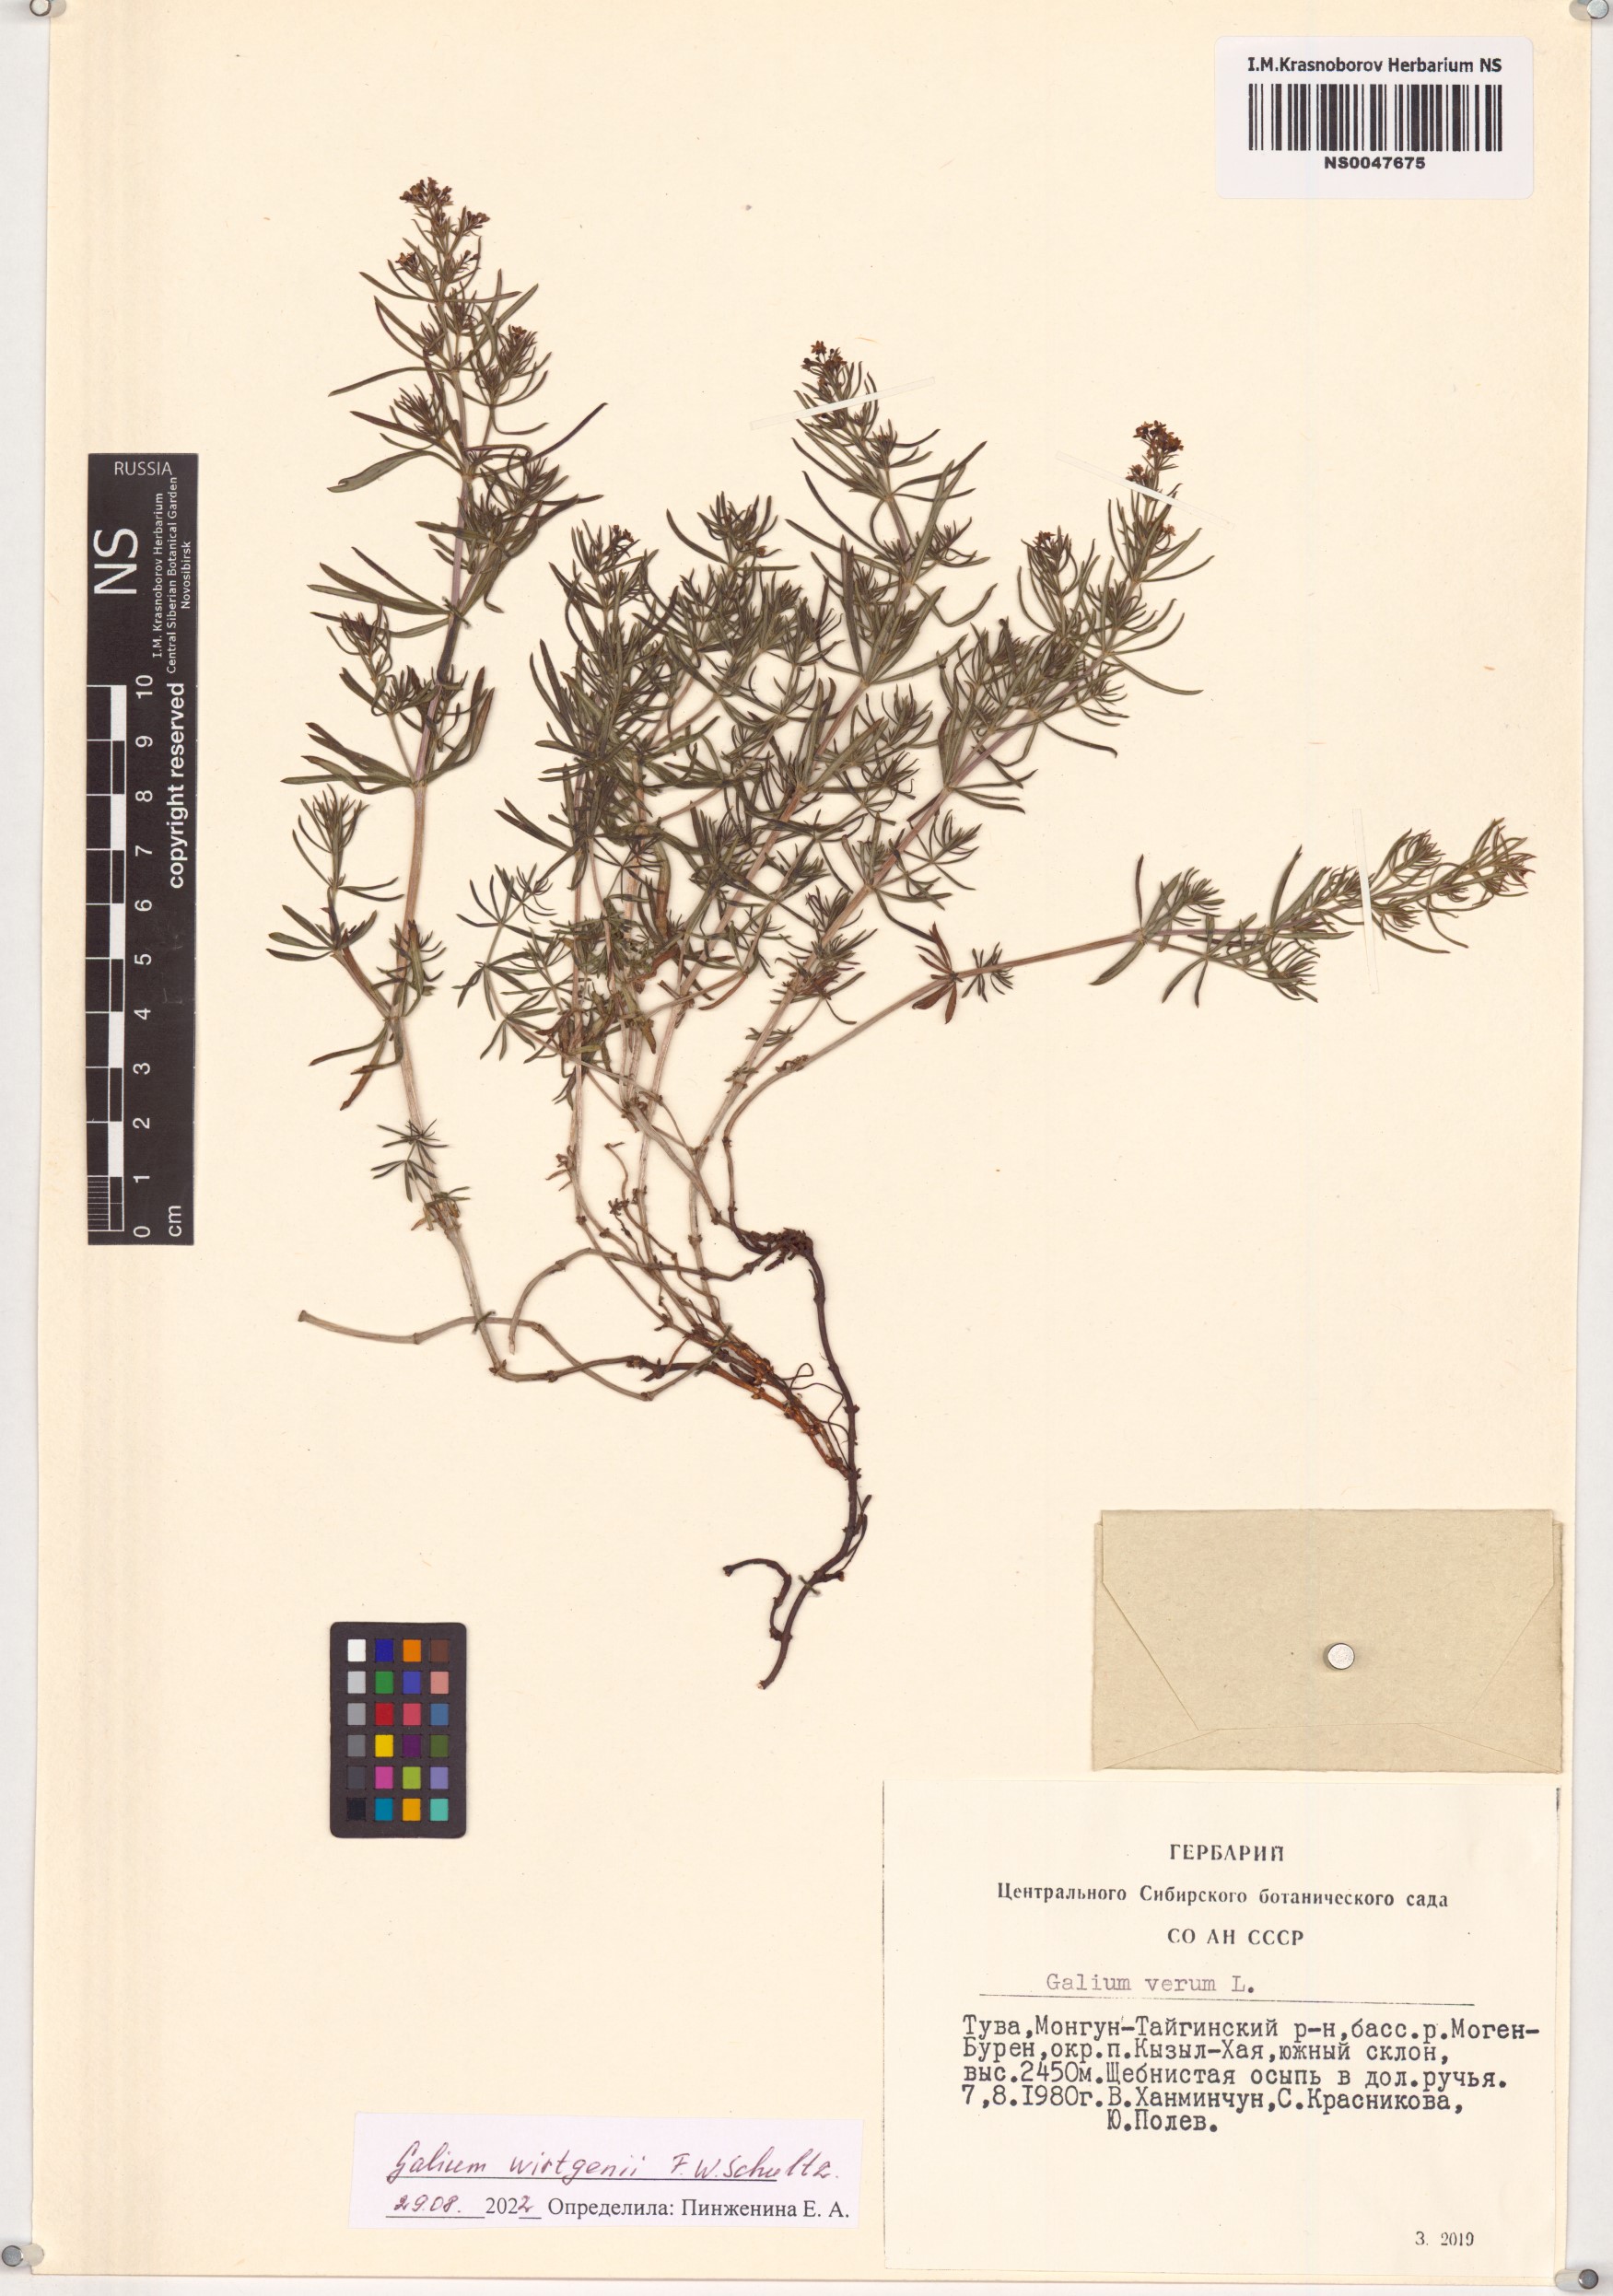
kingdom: Plantae
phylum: Tracheophyta
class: Magnoliopsida
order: Gentianales
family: Rubiaceae
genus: Galium
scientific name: Galium verum
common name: Lady's bedstraw
